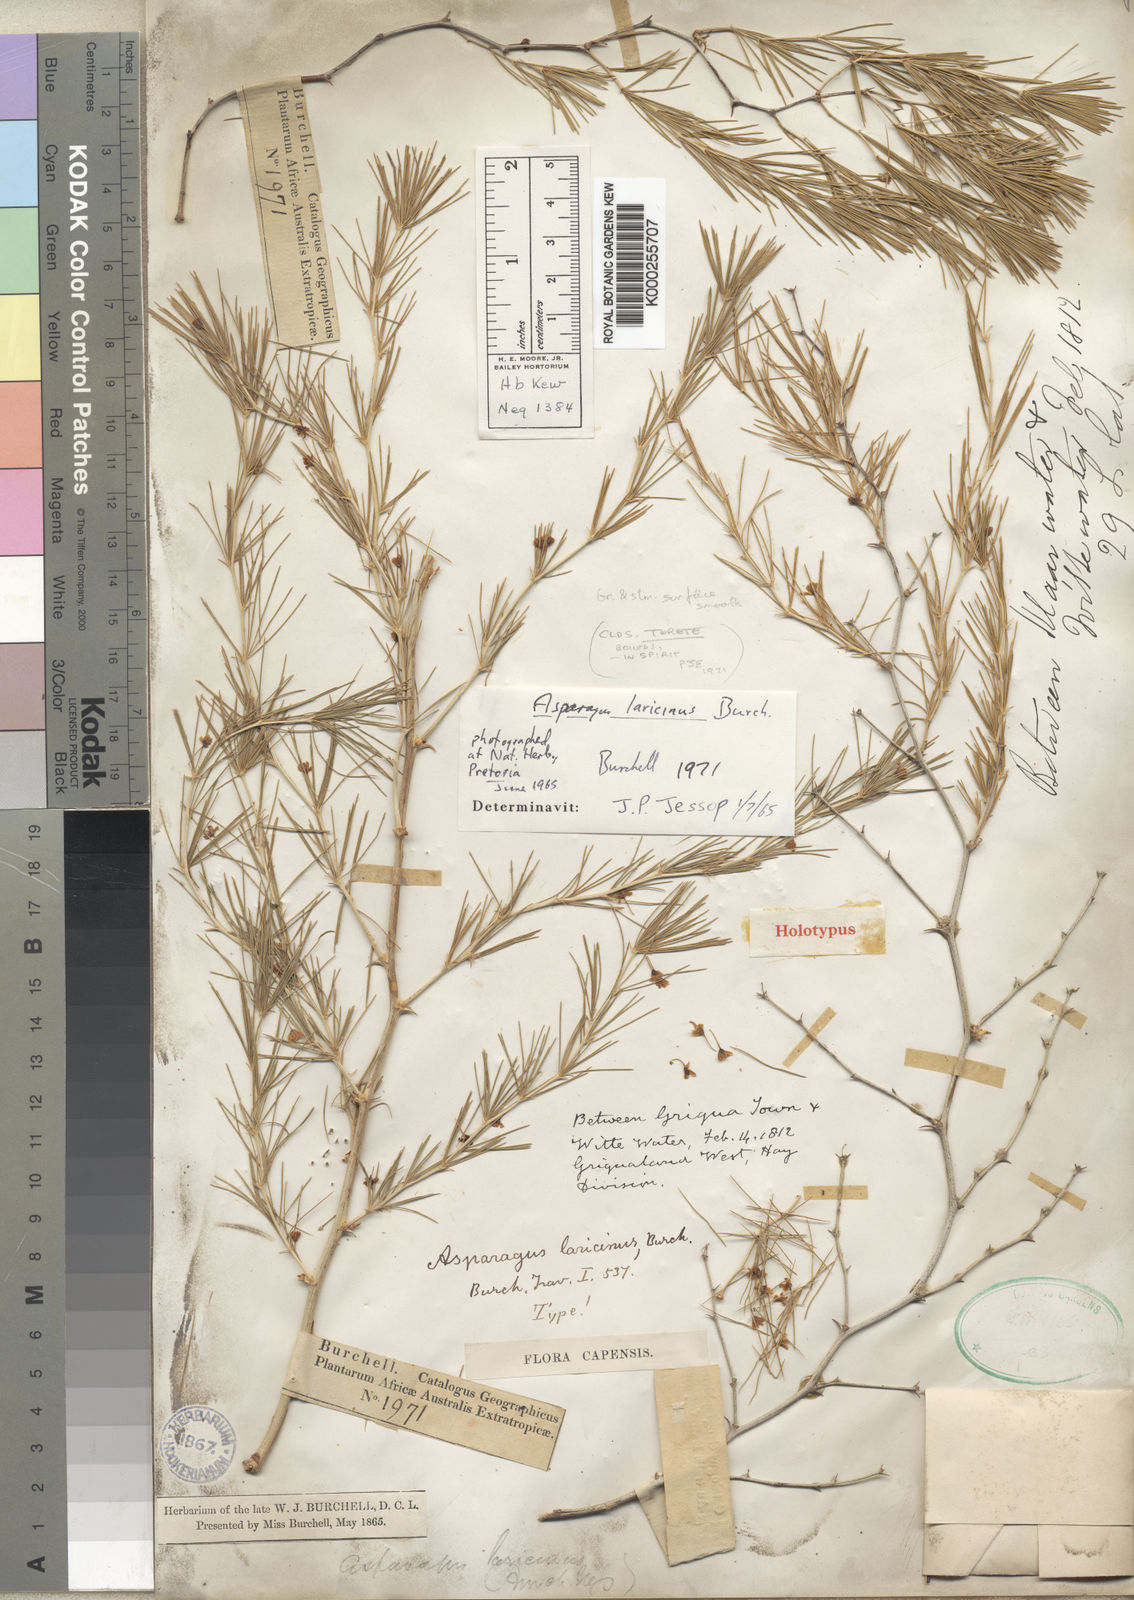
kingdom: Plantae
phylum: Tracheophyta
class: Liliopsida
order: Asparagales
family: Asparagaceae
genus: Asparagus
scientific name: Asparagus laricinus
